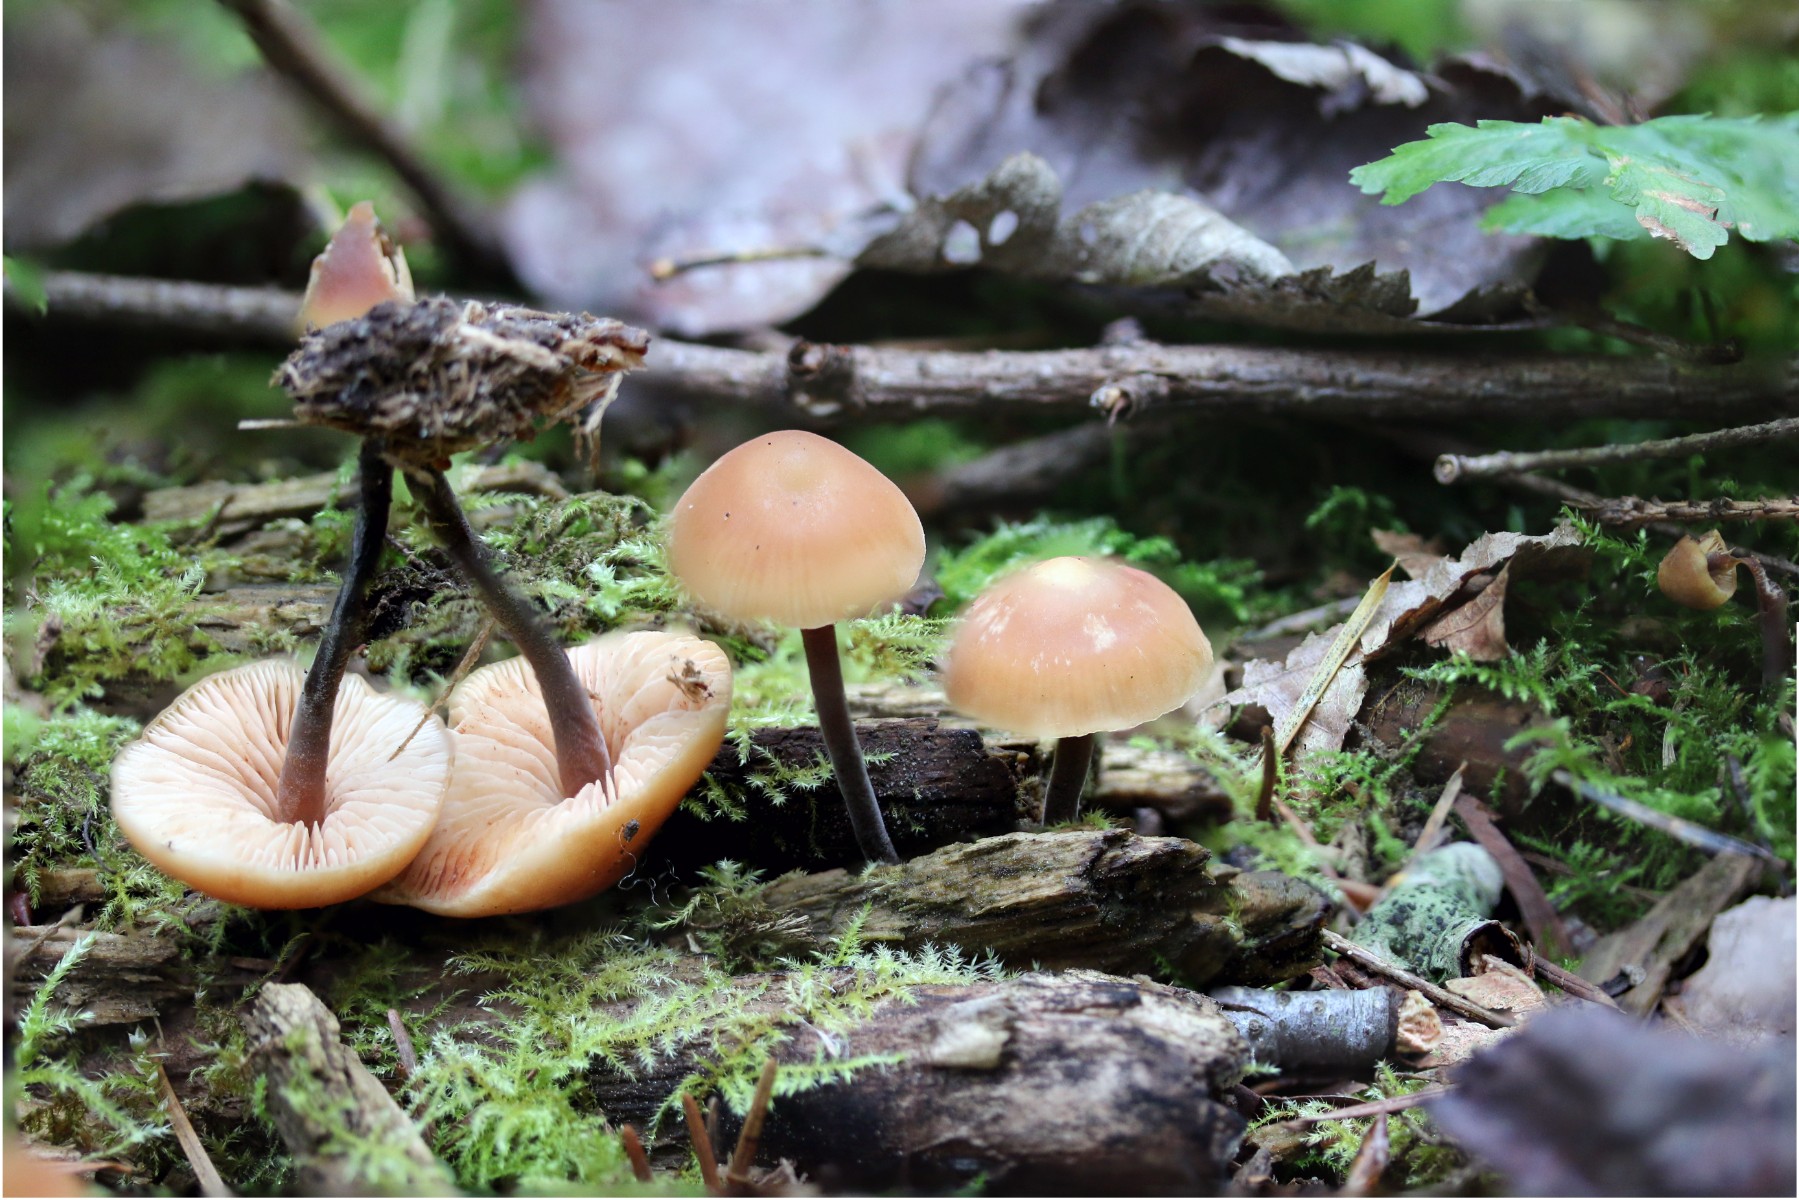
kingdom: Fungi
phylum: Basidiomycota
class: Agaricomycetes
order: Agaricales
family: Macrocystidiaceae
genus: Macrocystidia
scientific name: Macrocystidia cucumis
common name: agurkehat
